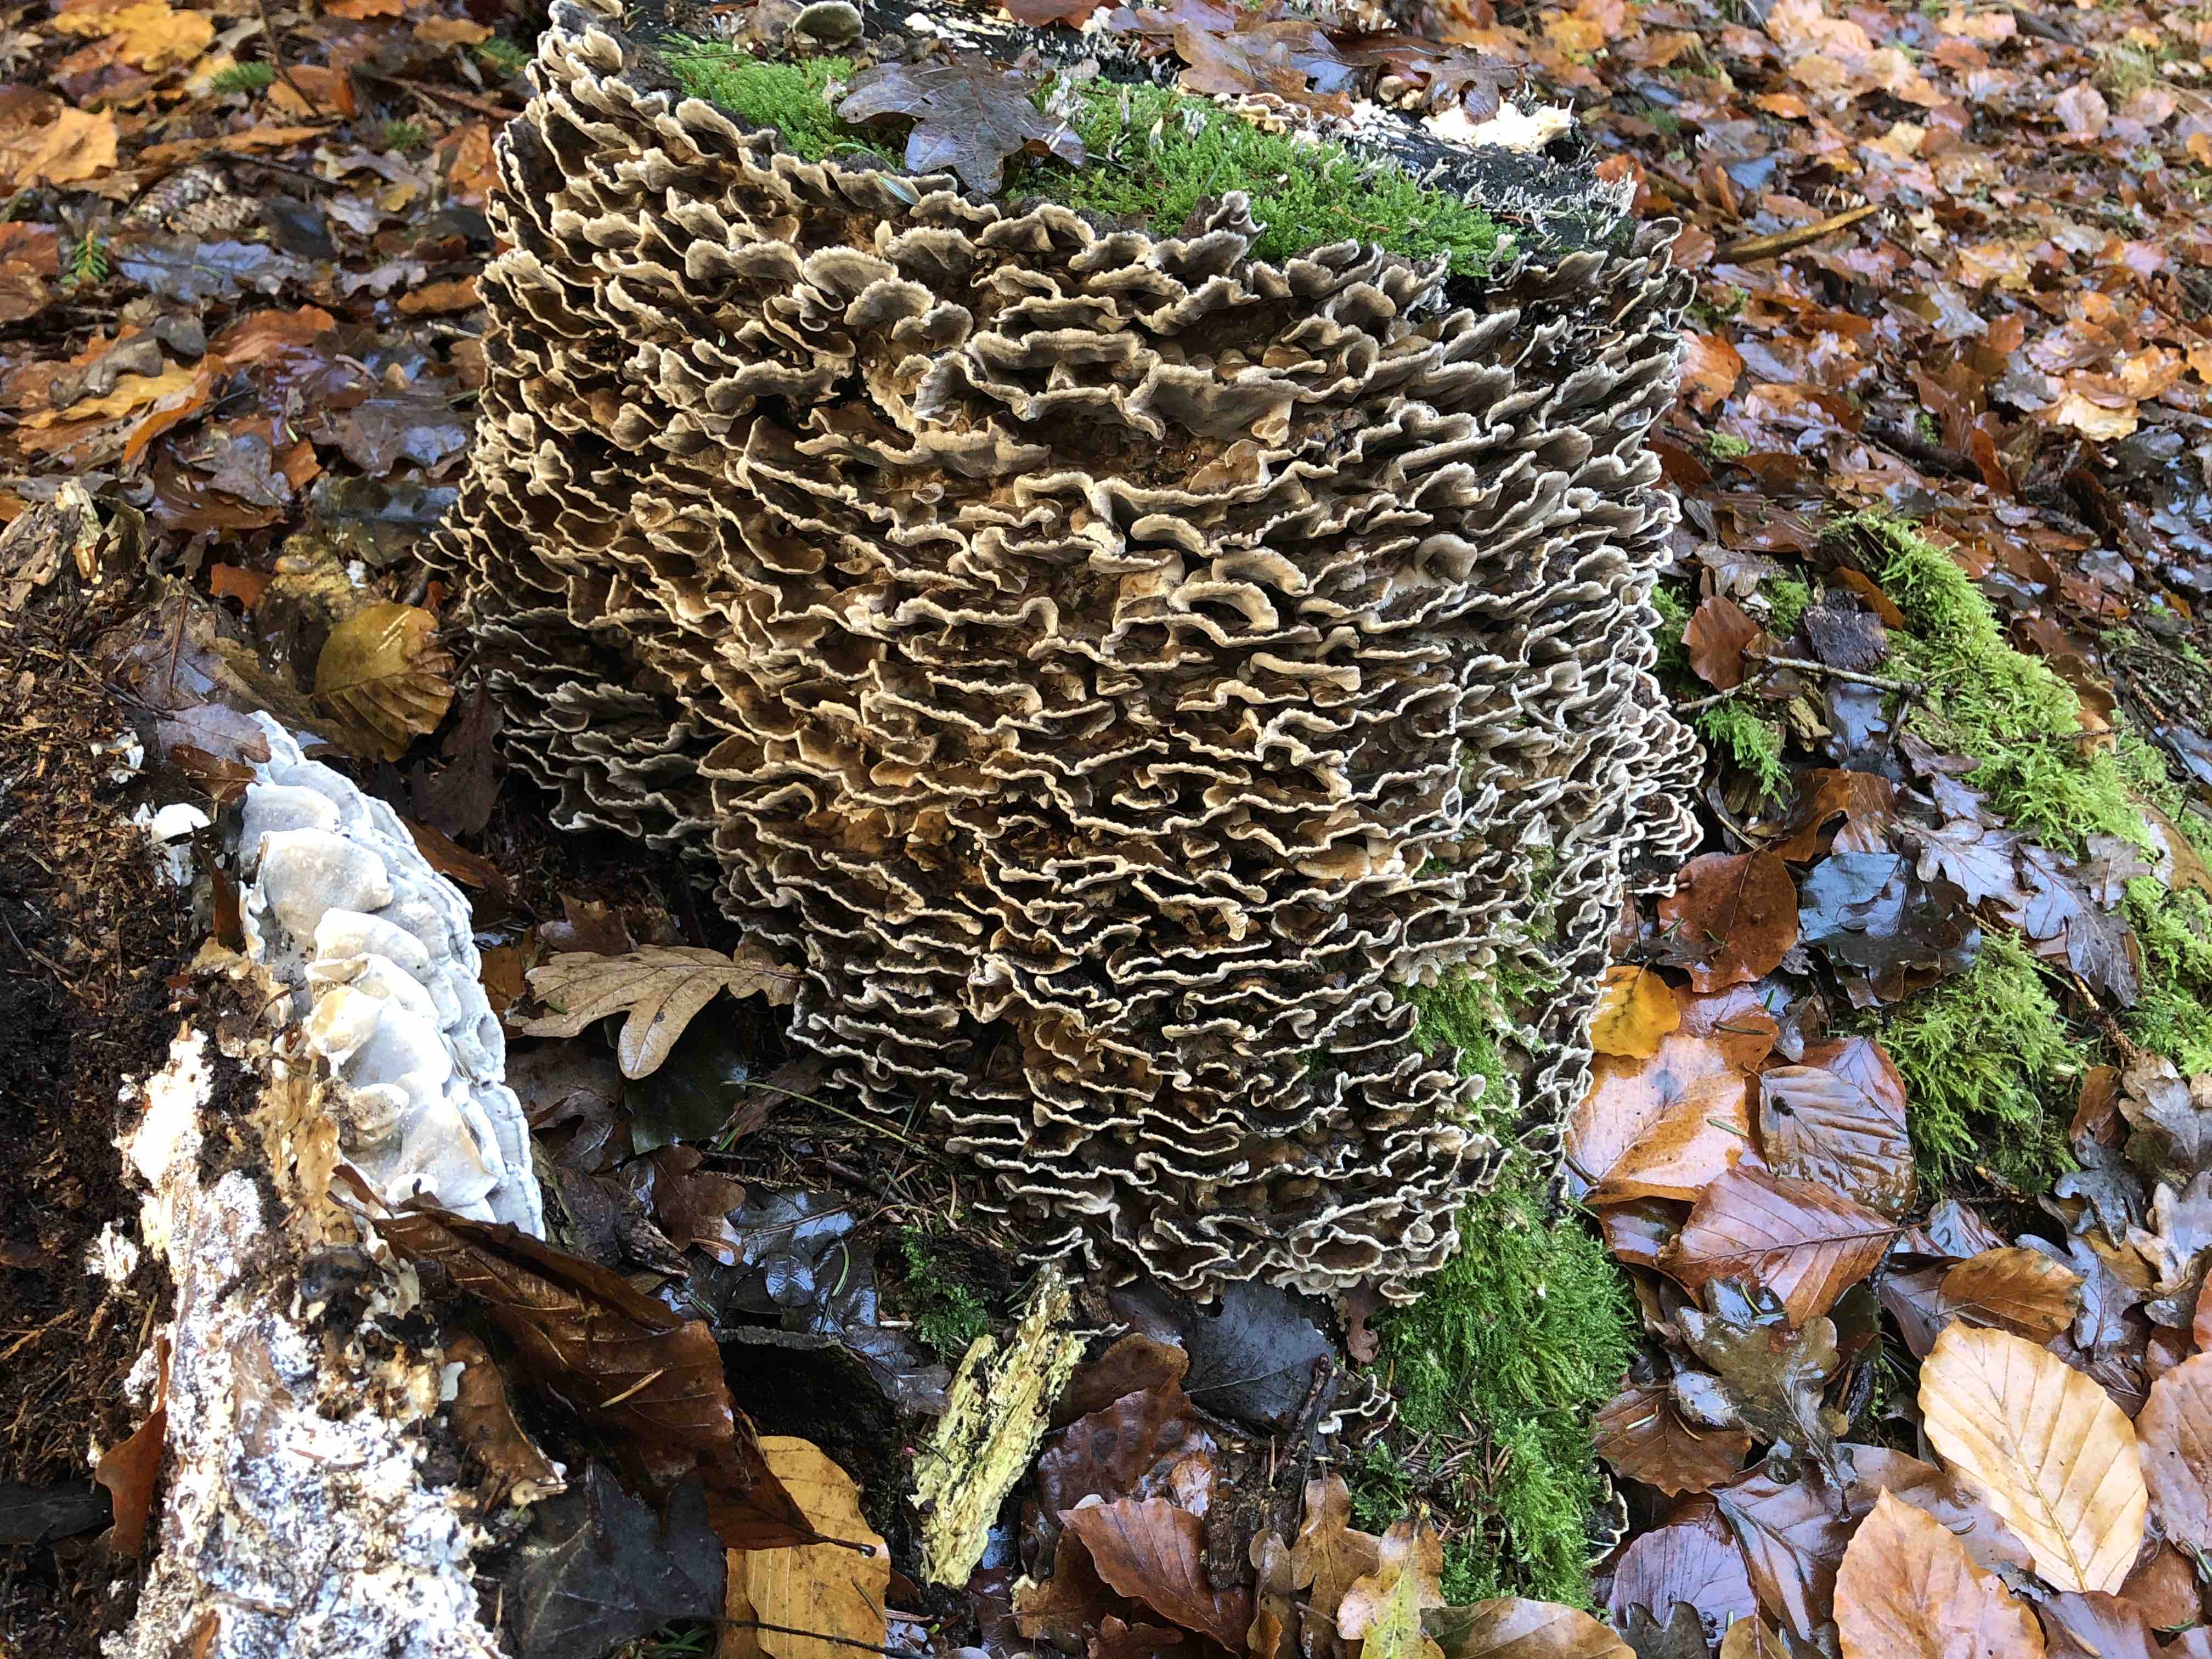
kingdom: Fungi
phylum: Basidiomycota
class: Agaricomycetes
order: Polyporales
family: Phanerochaetaceae
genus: Bjerkandera
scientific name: Bjerkandera adusta
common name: sveden sodporesvamp
